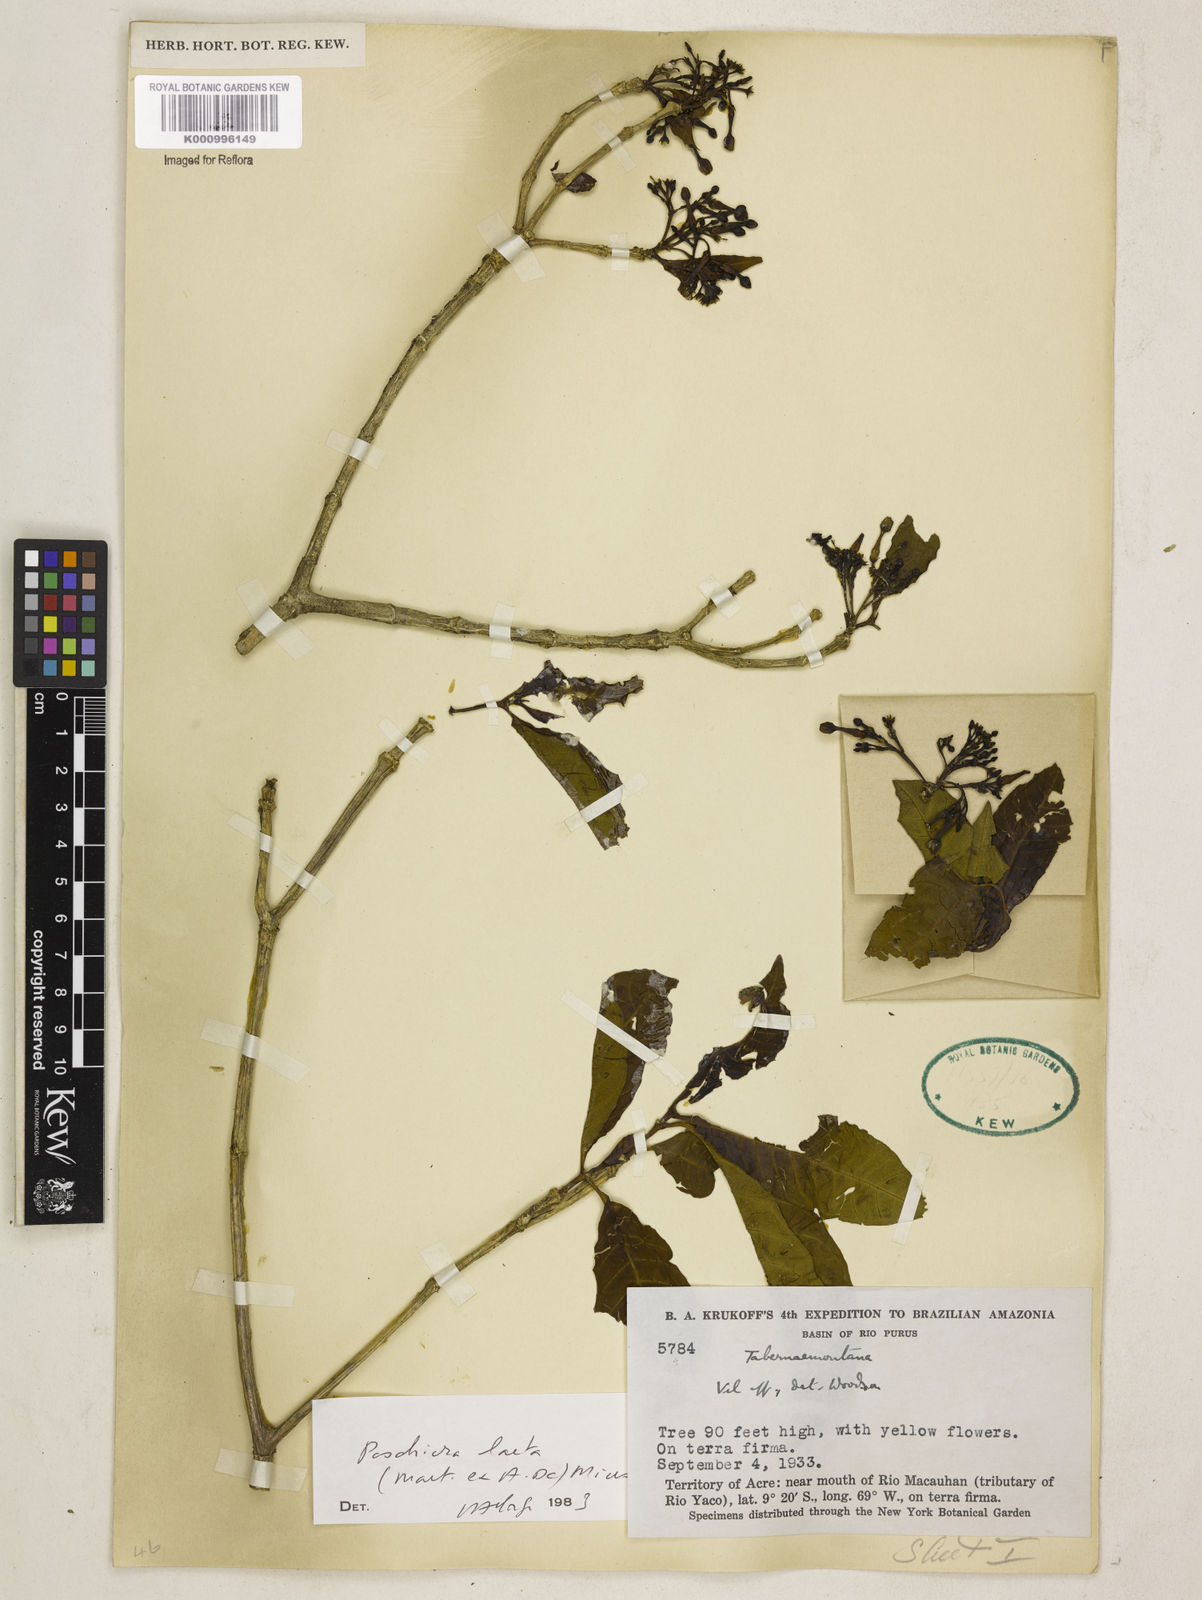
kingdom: Plantae
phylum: Tracheophyta
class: Magnoliopsida
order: Gentianales
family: Apocynaceae
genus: Tabernaemontana
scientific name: Tabernaemontana laeta
